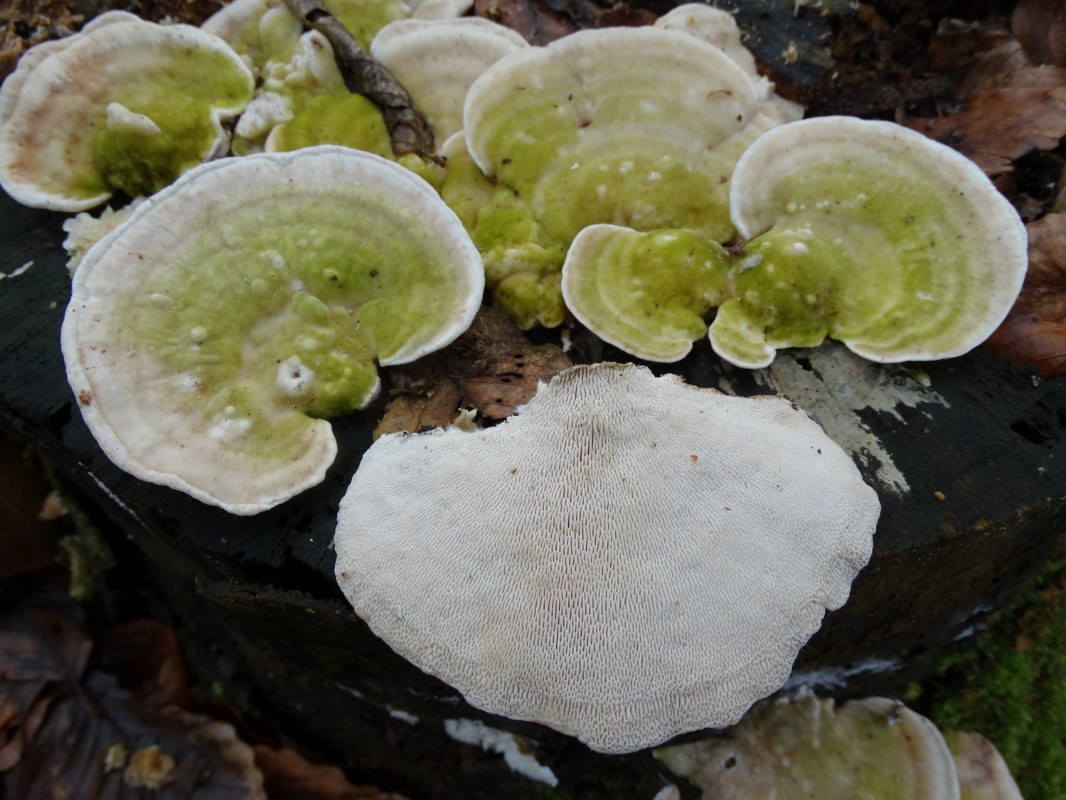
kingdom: Fungi
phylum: Basidiomycota
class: Agaricomycetes
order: Polyporales
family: Polyporaceae
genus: Trametes
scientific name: Trametes gibbosa
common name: puklet læderporesvamp
